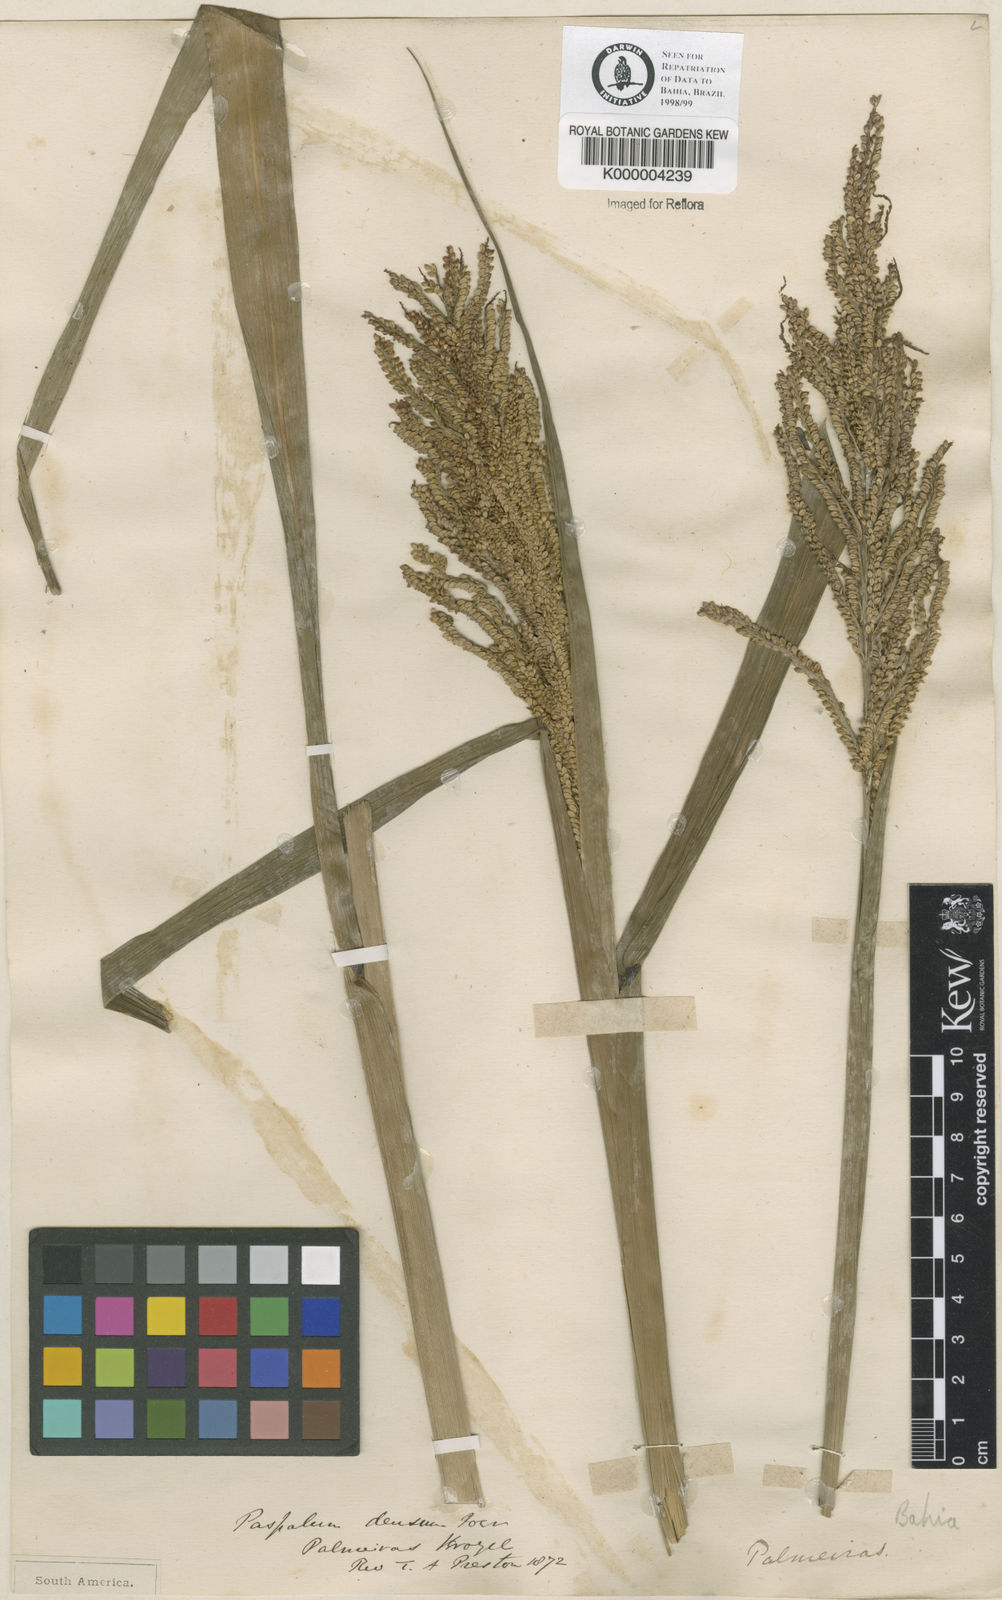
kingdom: Plantae
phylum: Tracheophyta
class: Liliopsida
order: Poales
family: Poaceae
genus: Paspalum
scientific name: Paspalum
